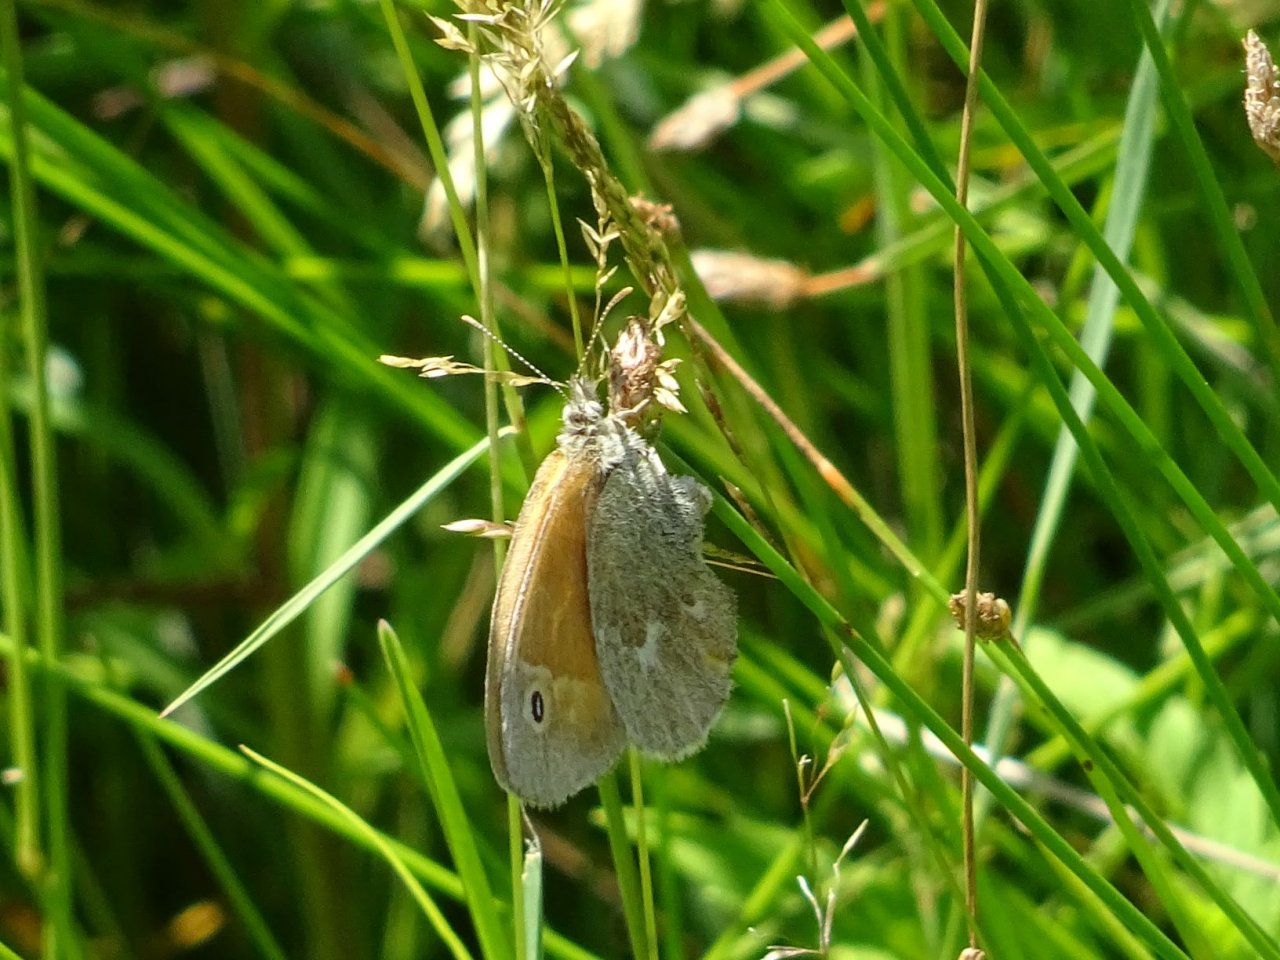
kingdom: Animalia
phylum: Arthropoda
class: Insecta
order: Lepidoptera
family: Nymphalidae
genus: Coenonympha
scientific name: Coenonympha tullia
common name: Large Heath
